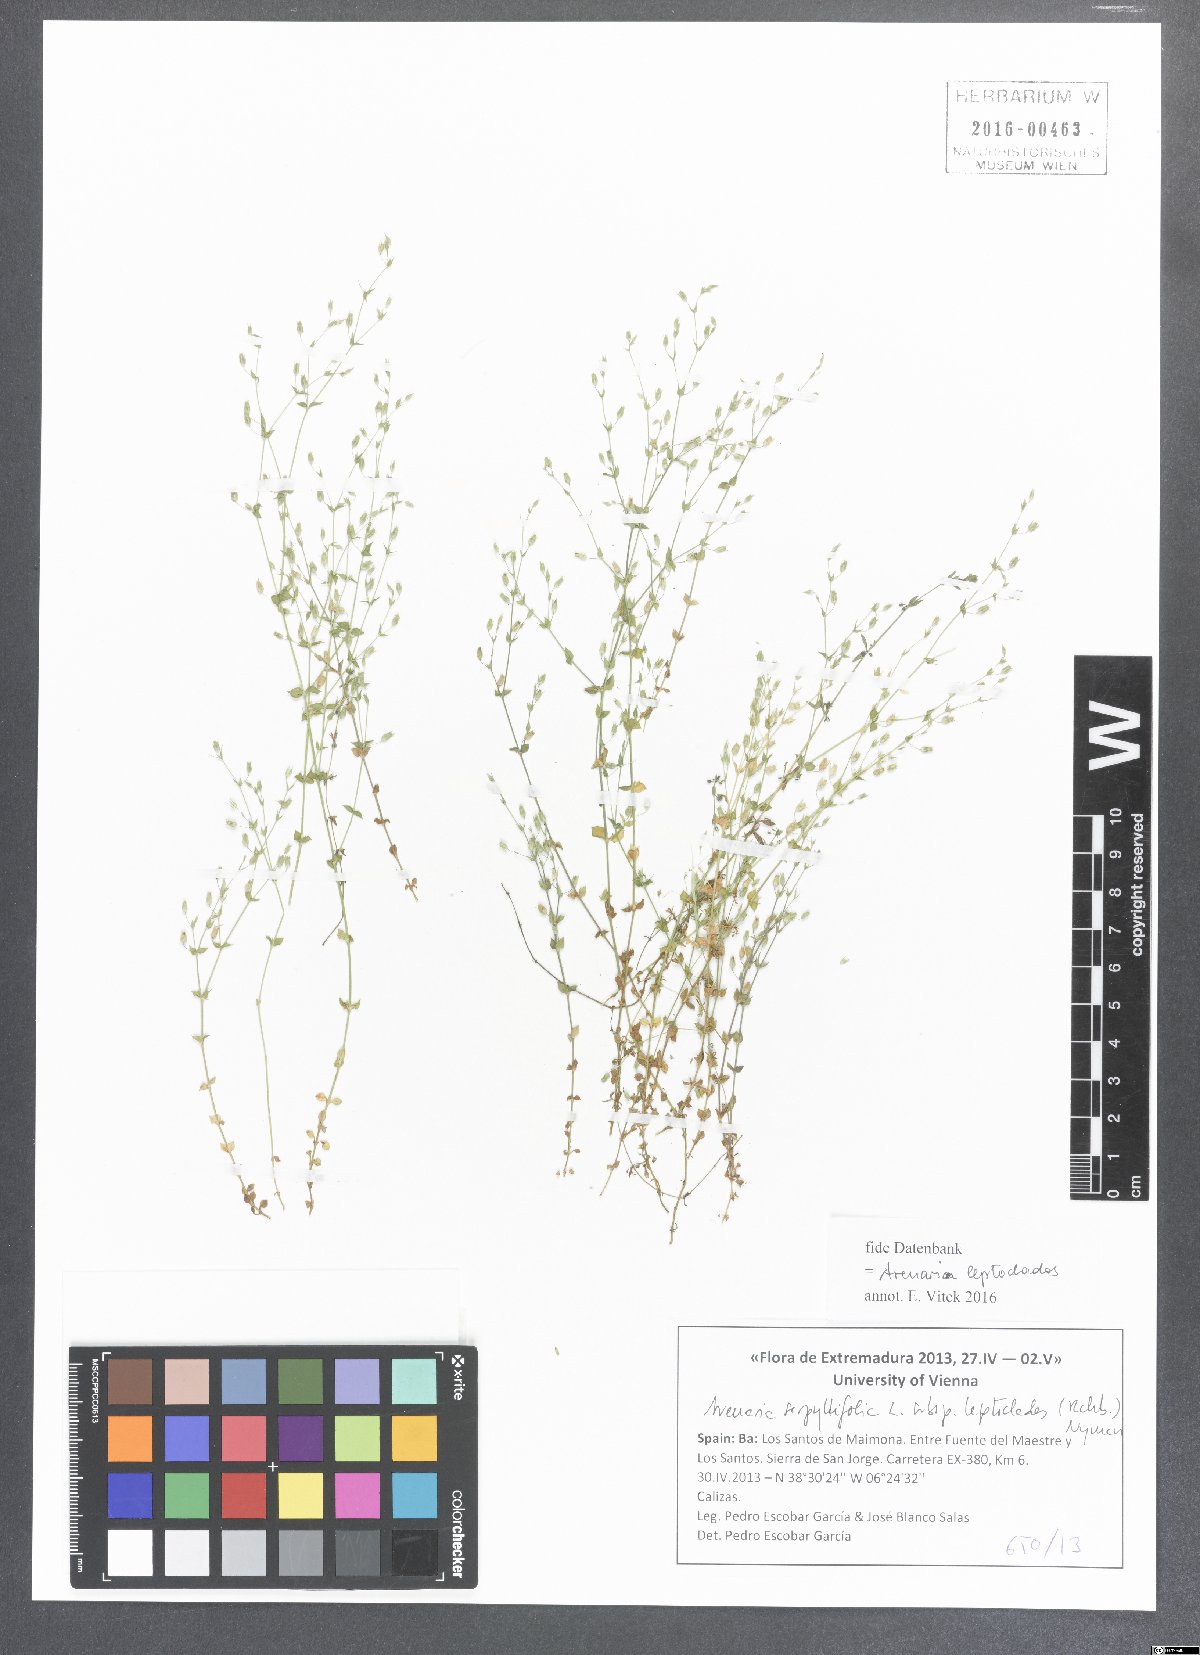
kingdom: Plantae
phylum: Tracheophyta
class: Magnoliopsida
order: Caryophyllales
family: Caryophyllaceae
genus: Arenaria
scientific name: Arenaria leptoclados
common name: Thyme-leaved sandwort
